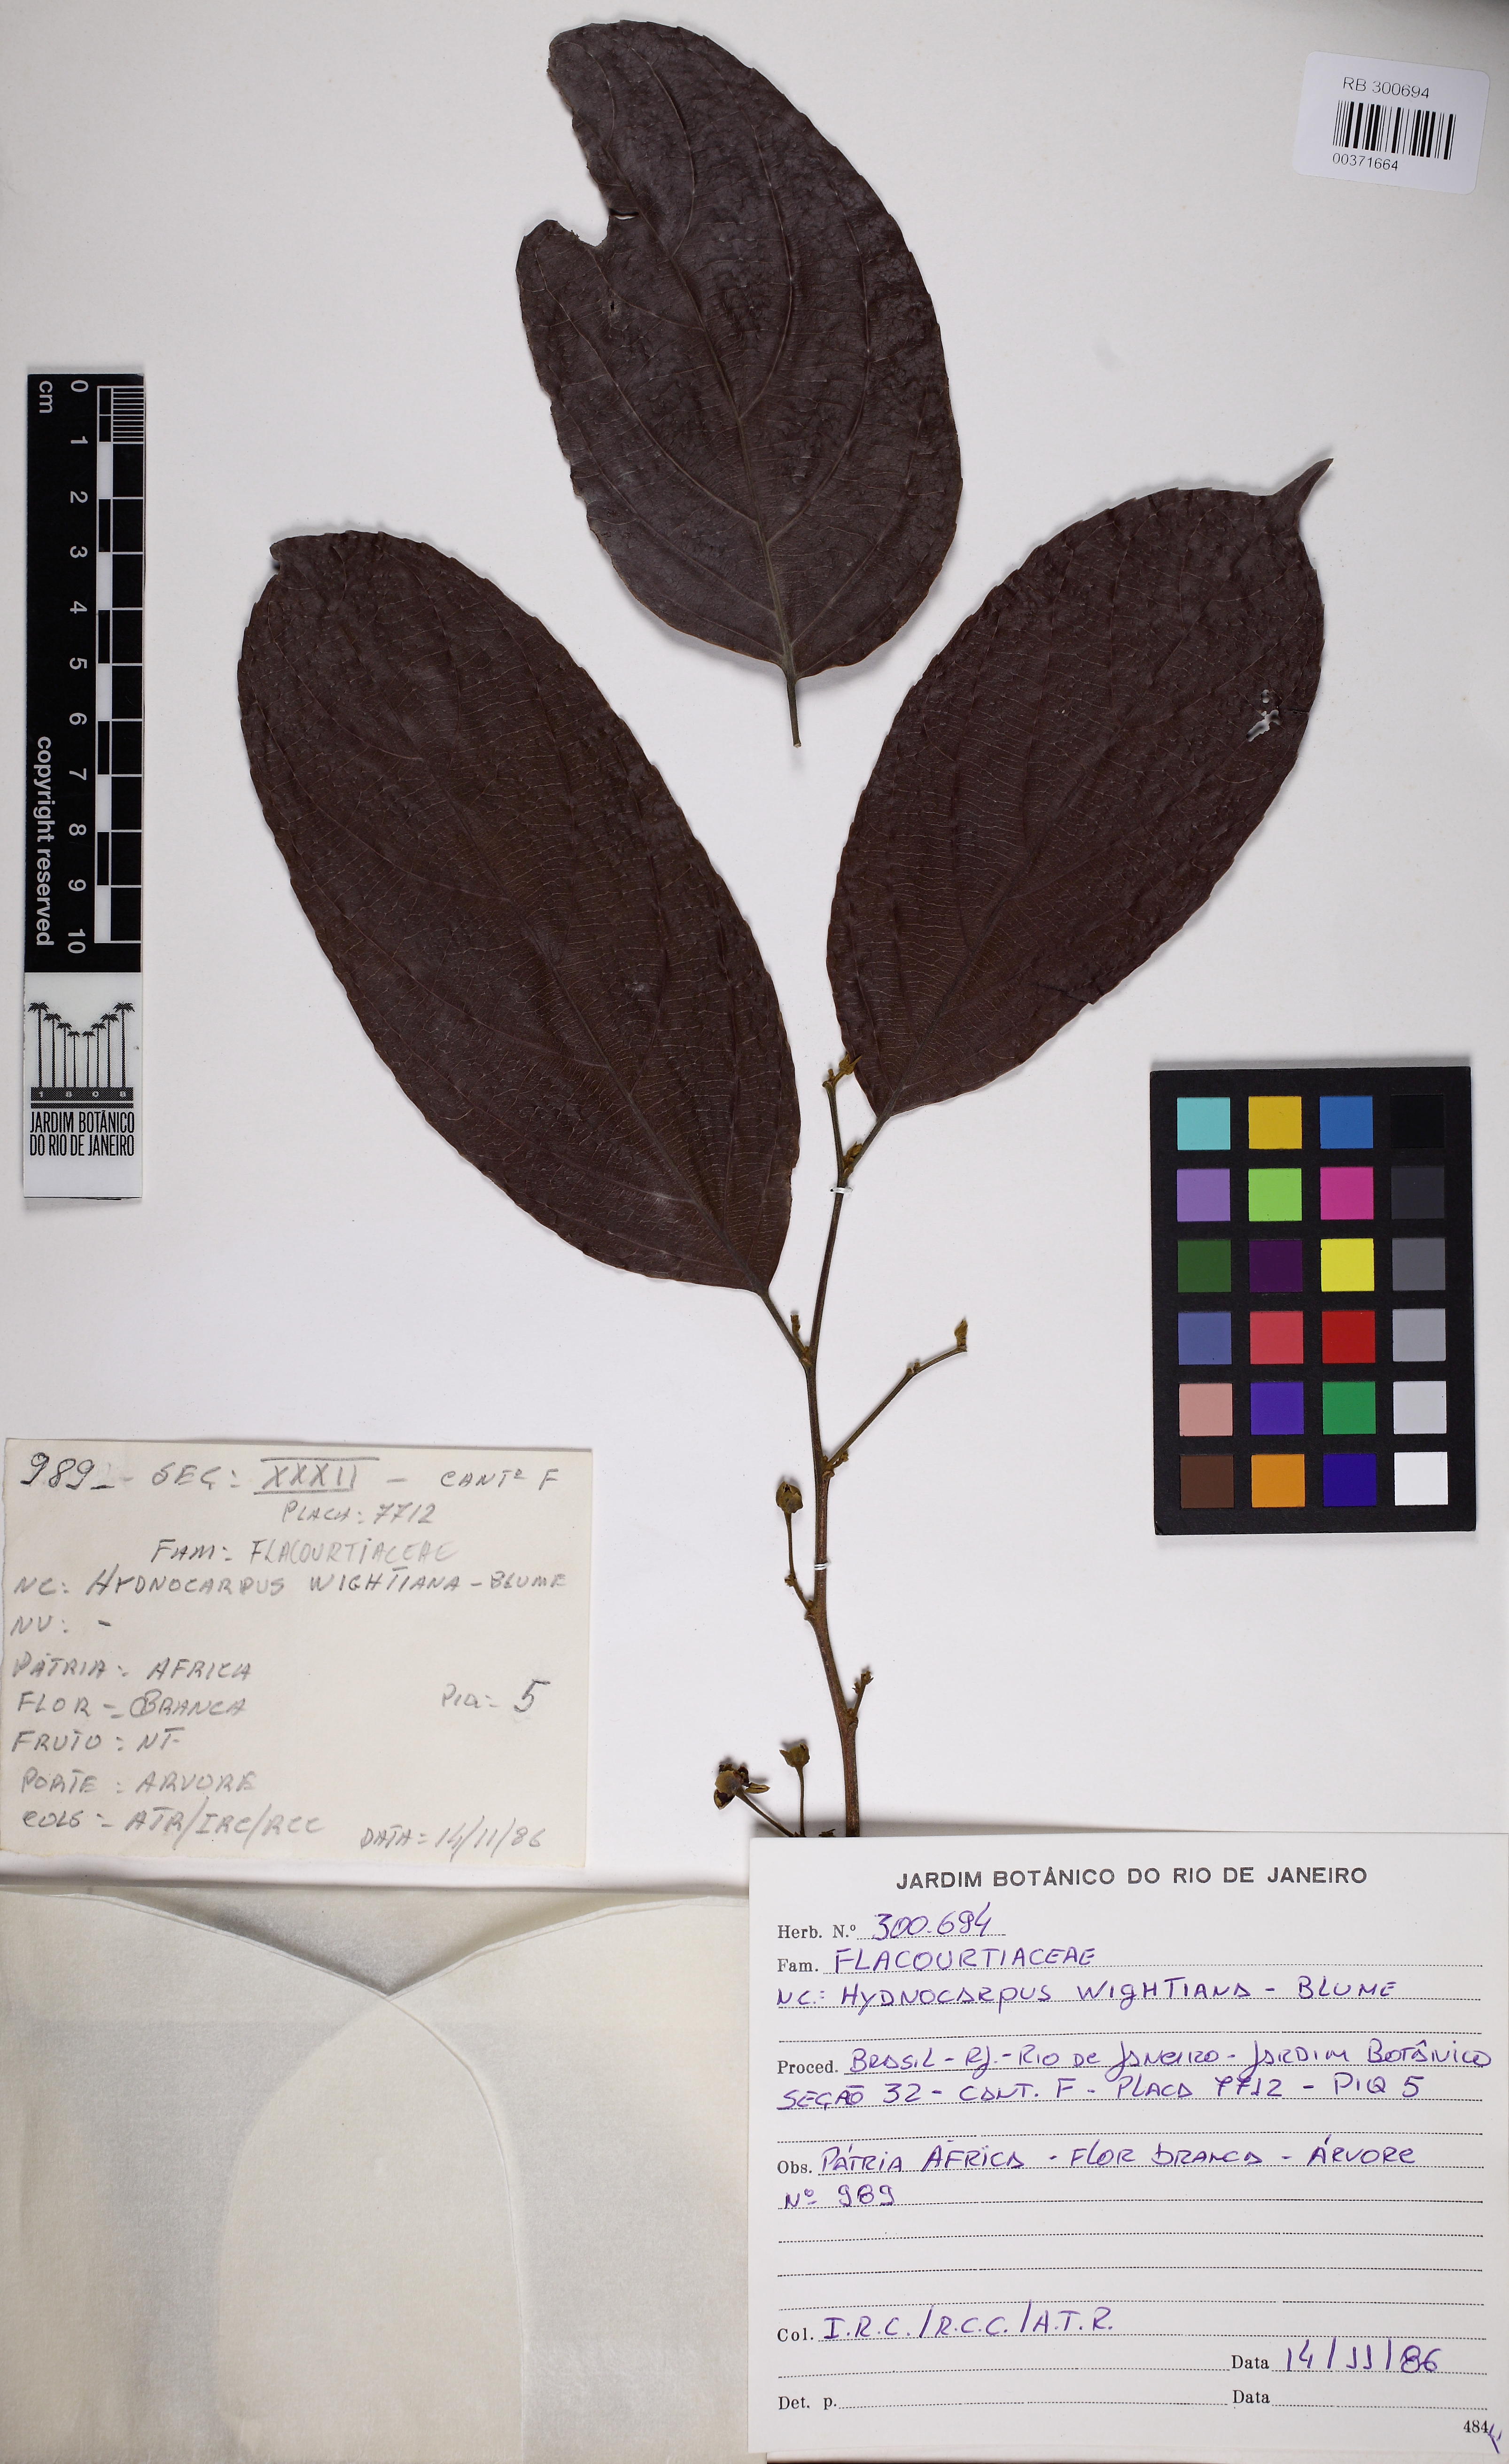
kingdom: Plantae
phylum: Tracheophyta
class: Magnoliopsida
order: Malpighiales
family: Achariaceae
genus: Hydnocarpus
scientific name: Hydnocarpus pentandrus
